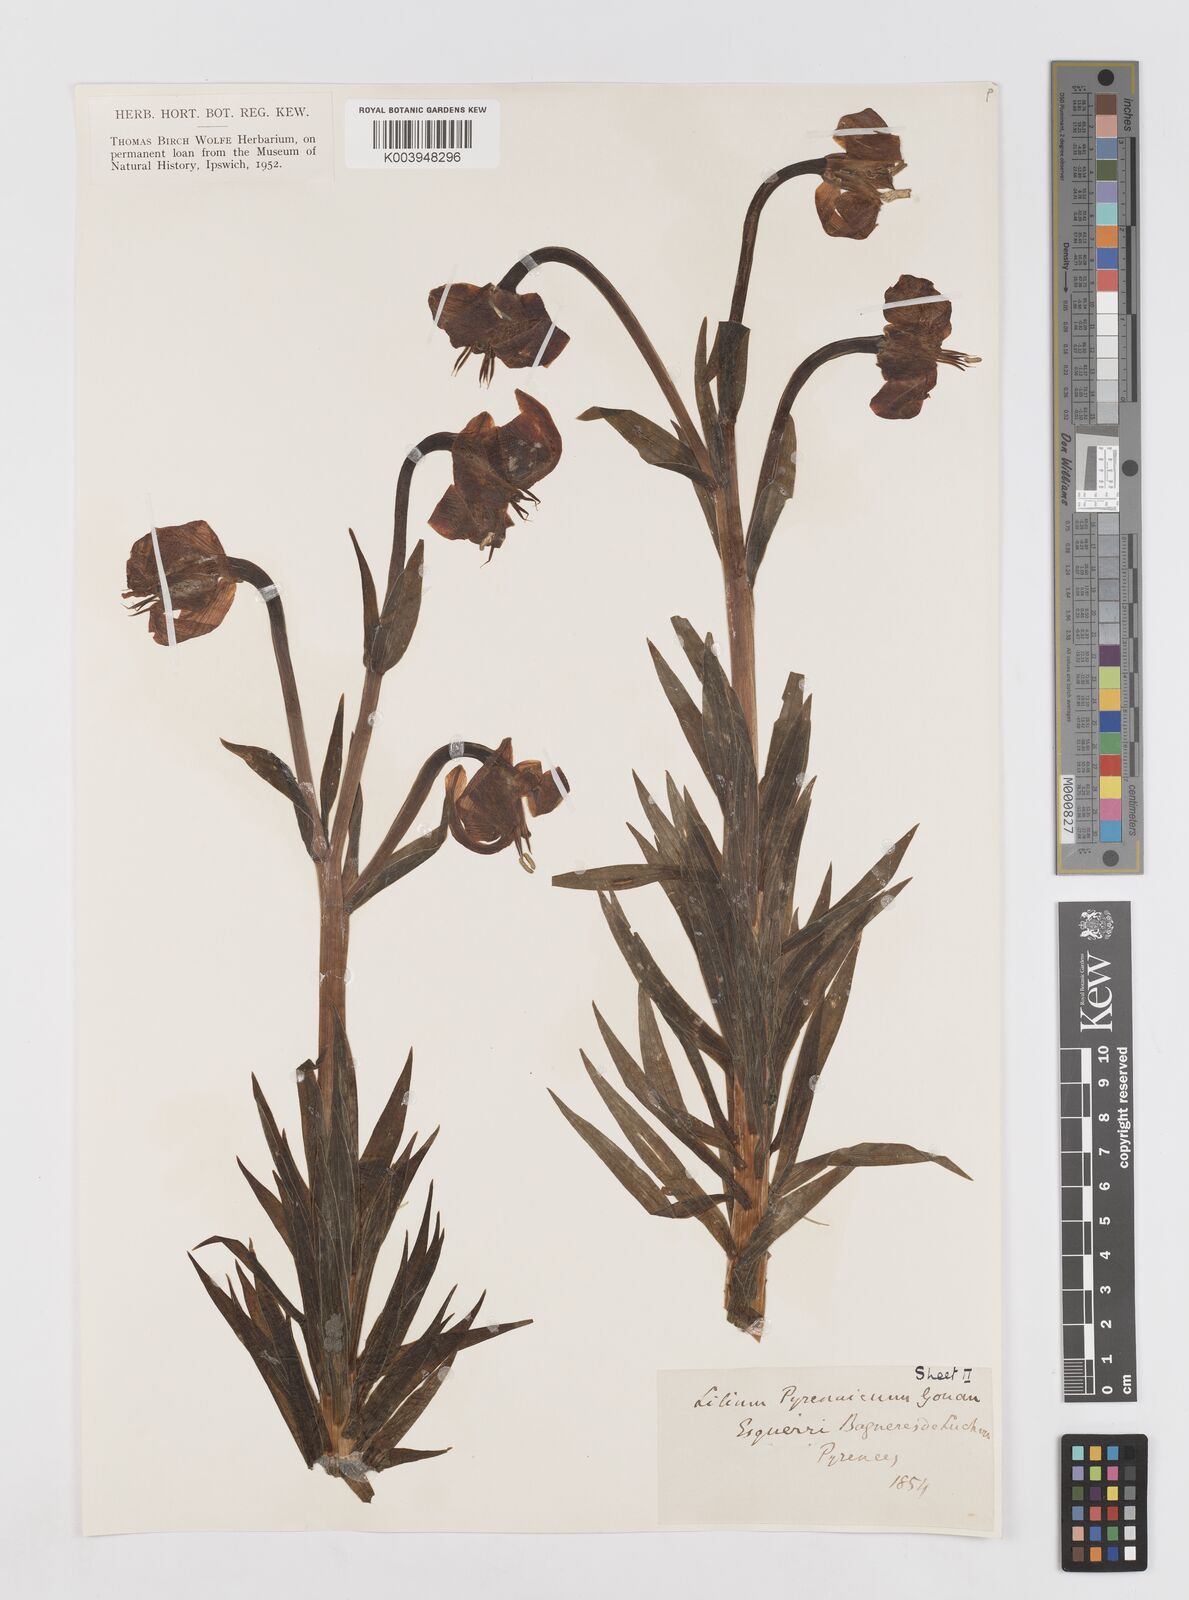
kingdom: Plantae
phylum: Tracheophyta
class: Liliopsida
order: Liliales
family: Liliaceae
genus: Lilium
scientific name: Lilium pyrenaicum
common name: Pyrenean lily
